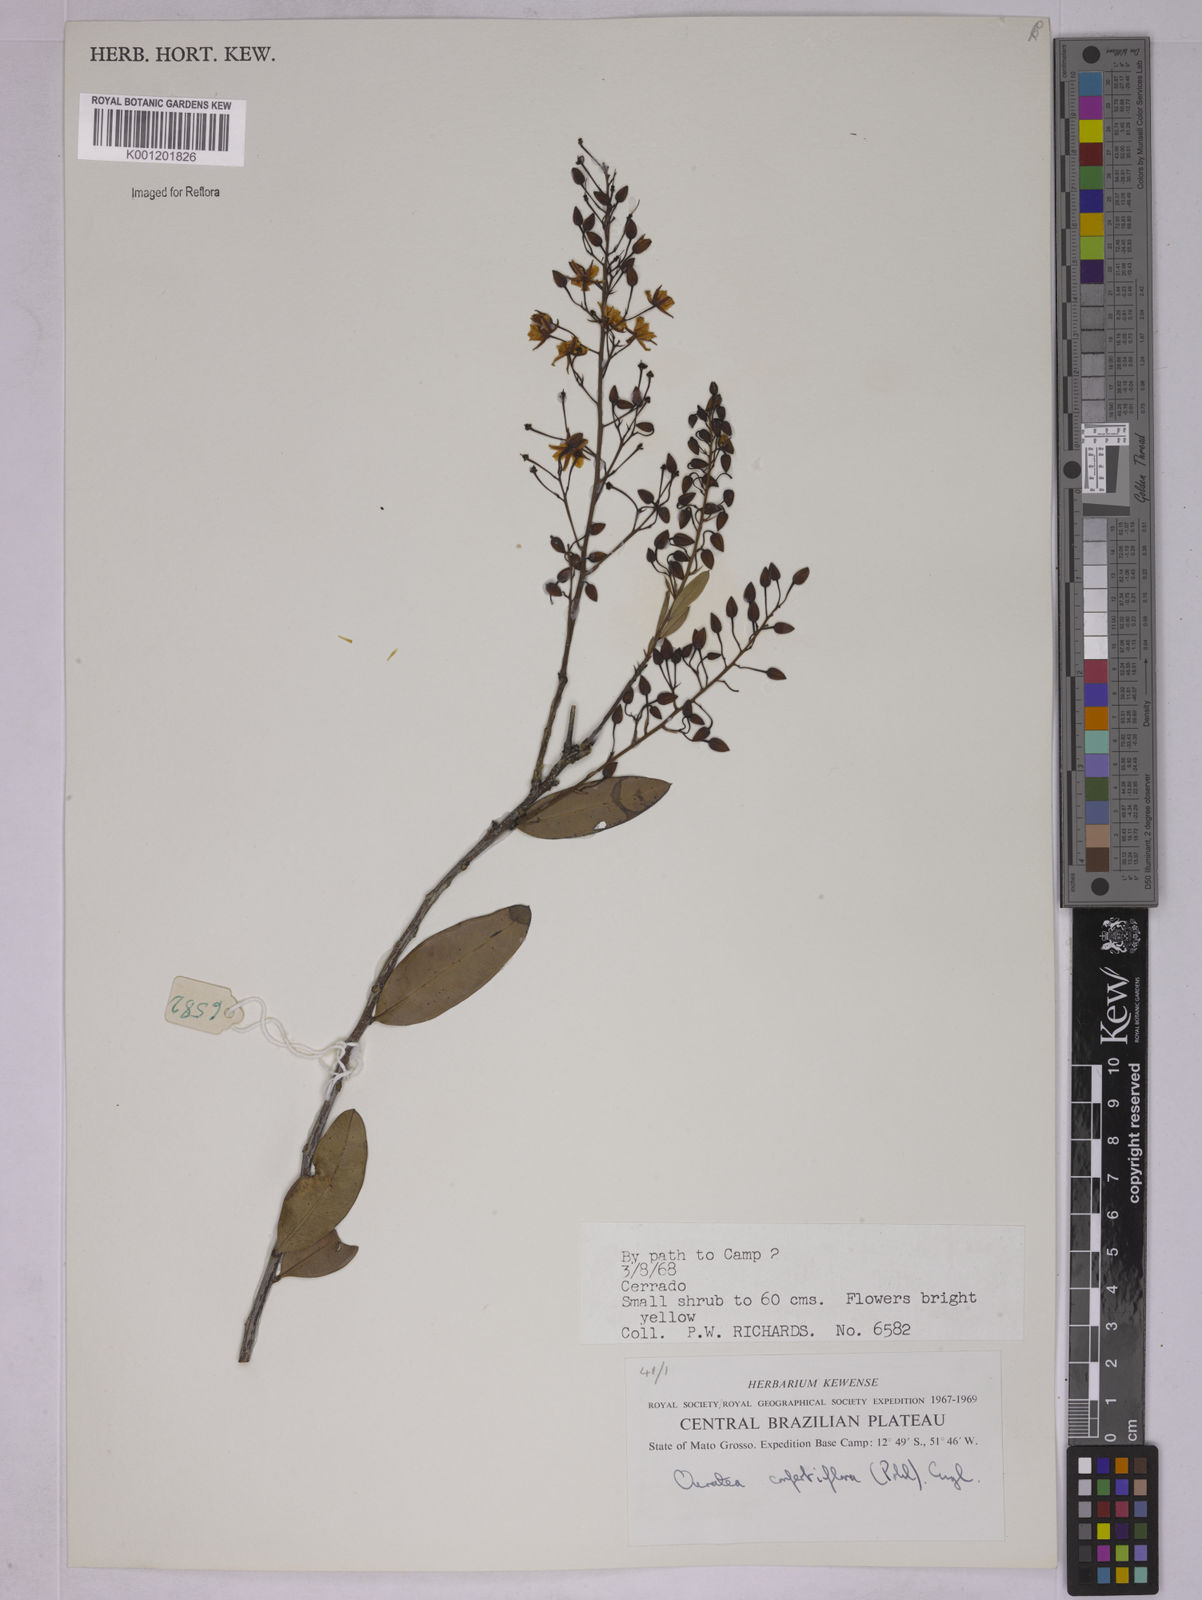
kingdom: Plantae
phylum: Tracheophyta
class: Magnoliopsida
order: Malpighiales
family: Ochnaceae
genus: Ouratea
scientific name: Ouratea confertiflora
